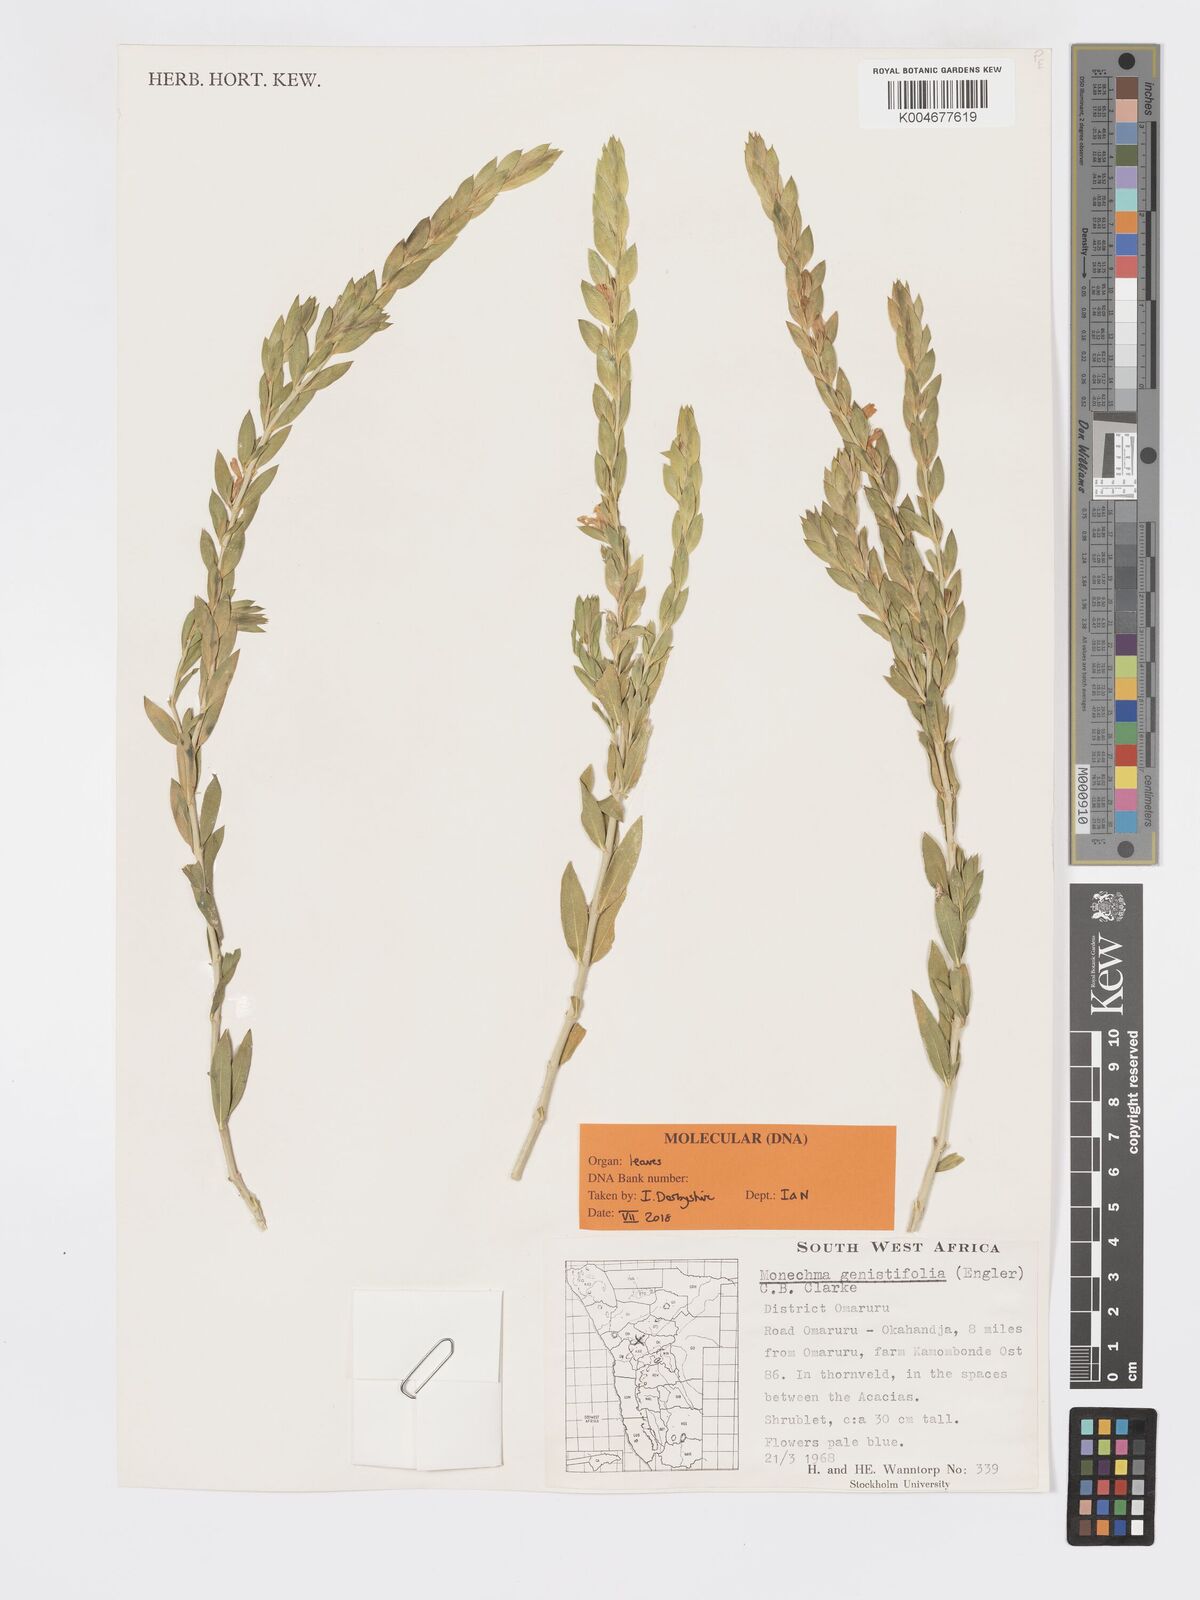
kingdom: Plantae
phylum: Tracheophyta
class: Magnoliopsida
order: Lamiales
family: Acanthaceae
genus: Pogonospermum
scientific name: Pogonospermum
